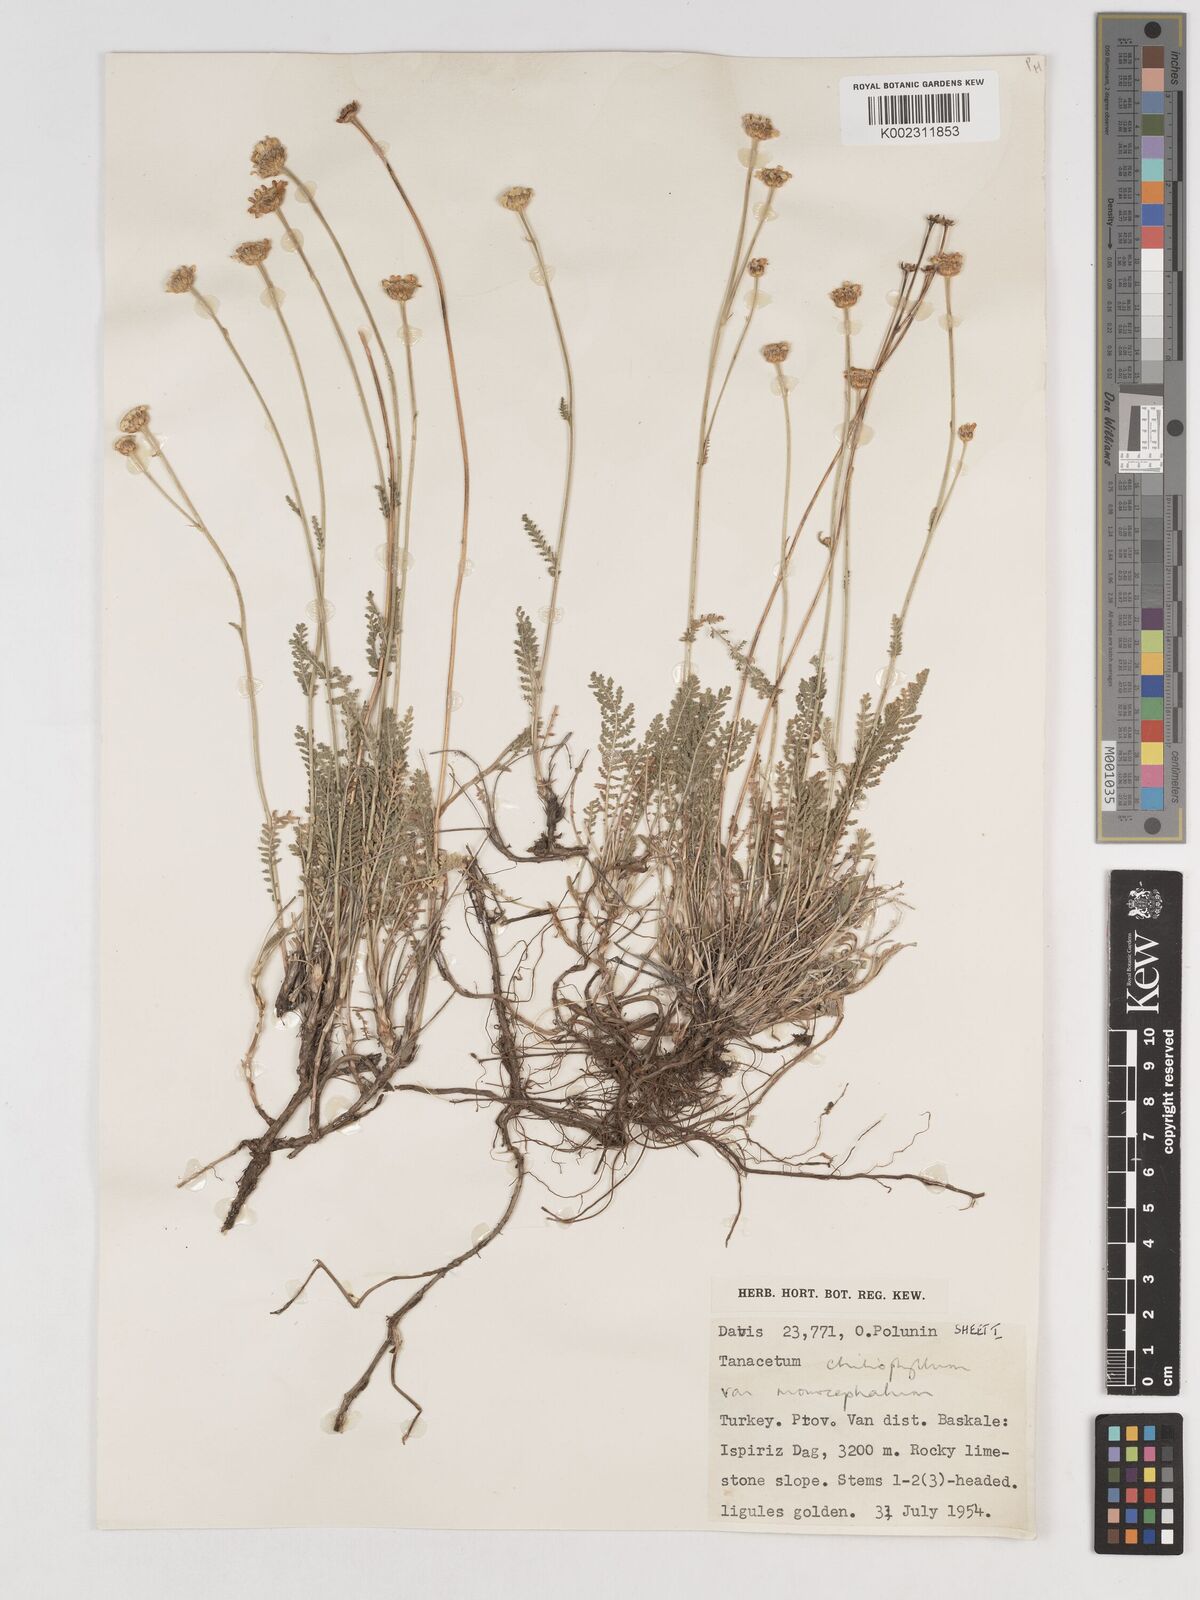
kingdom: Plantae
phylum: Tracheophyta
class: Magnoliopsida
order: Asterales
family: Asteraceae
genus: Tanacetum
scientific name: Tanacetum aureum
